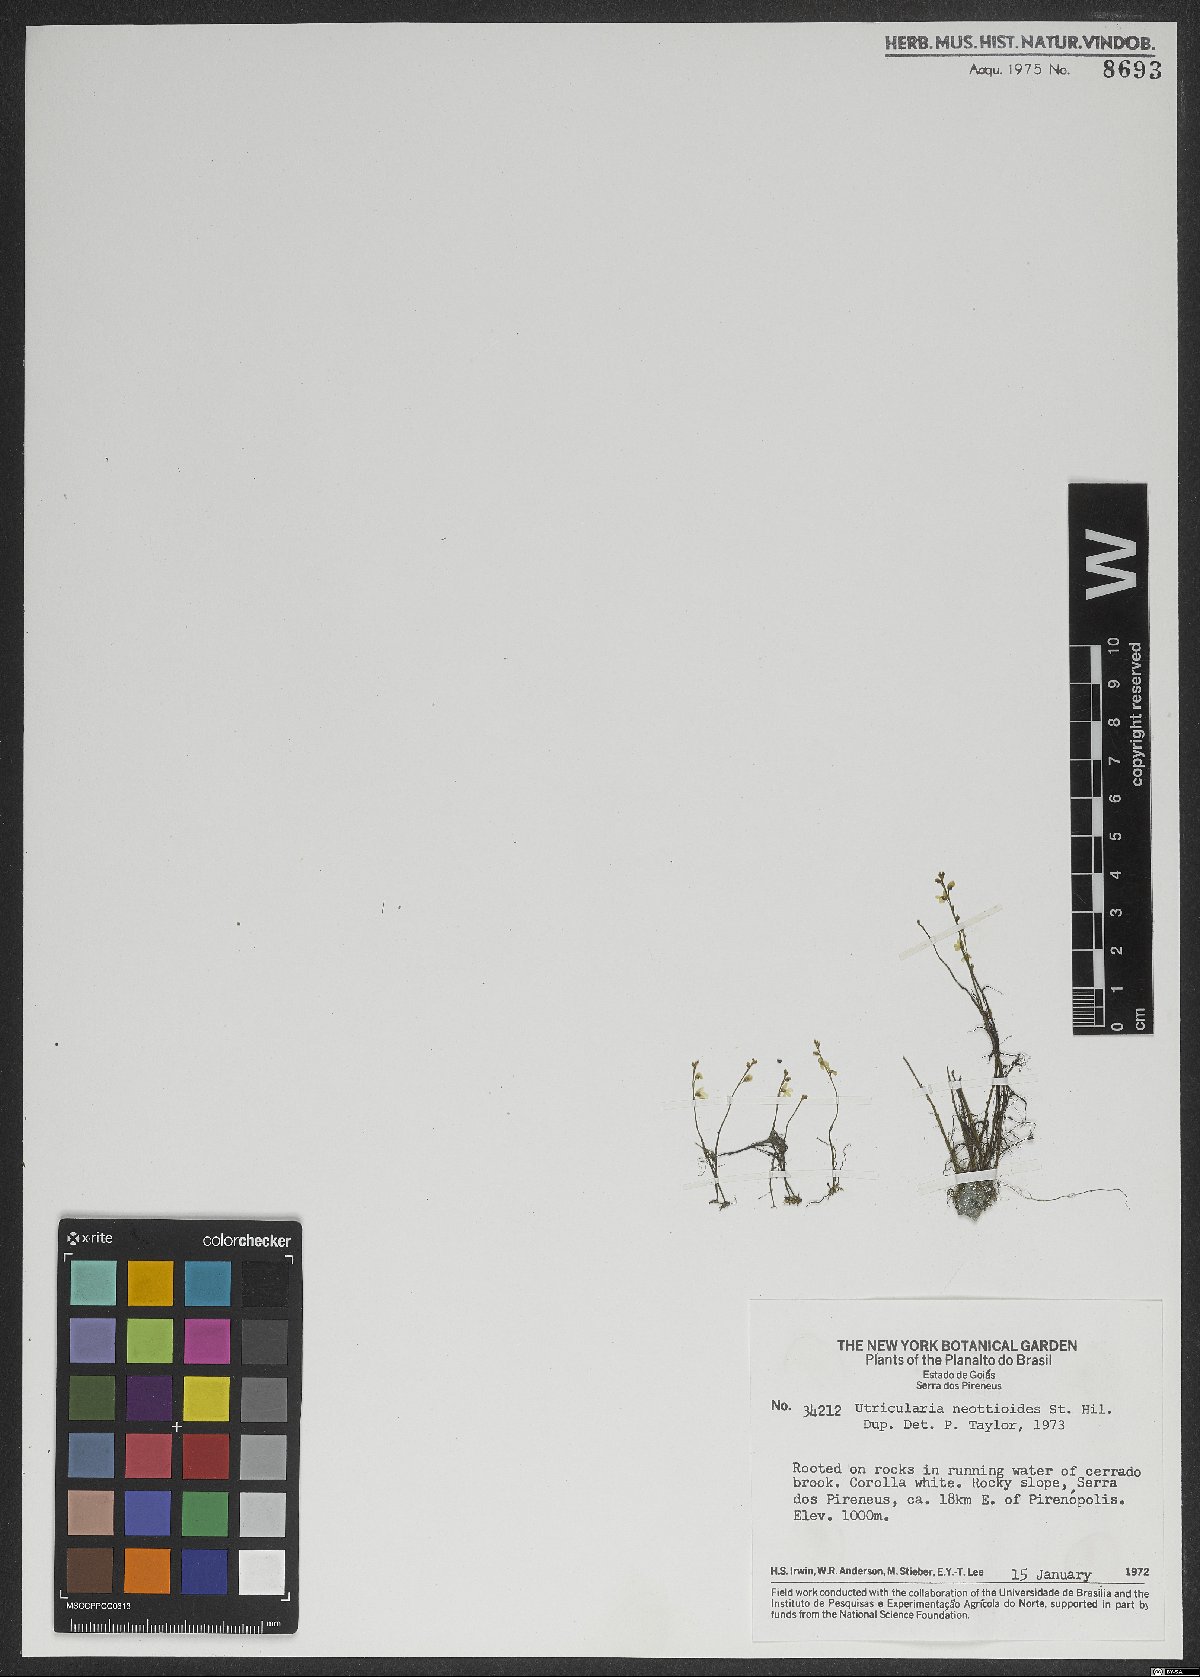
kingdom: Plantae
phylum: Tracheophyta
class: Magnoliopsida
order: Lamiales
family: Lentibulariaceae
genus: Utricularia
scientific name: Utricularia neottioides
